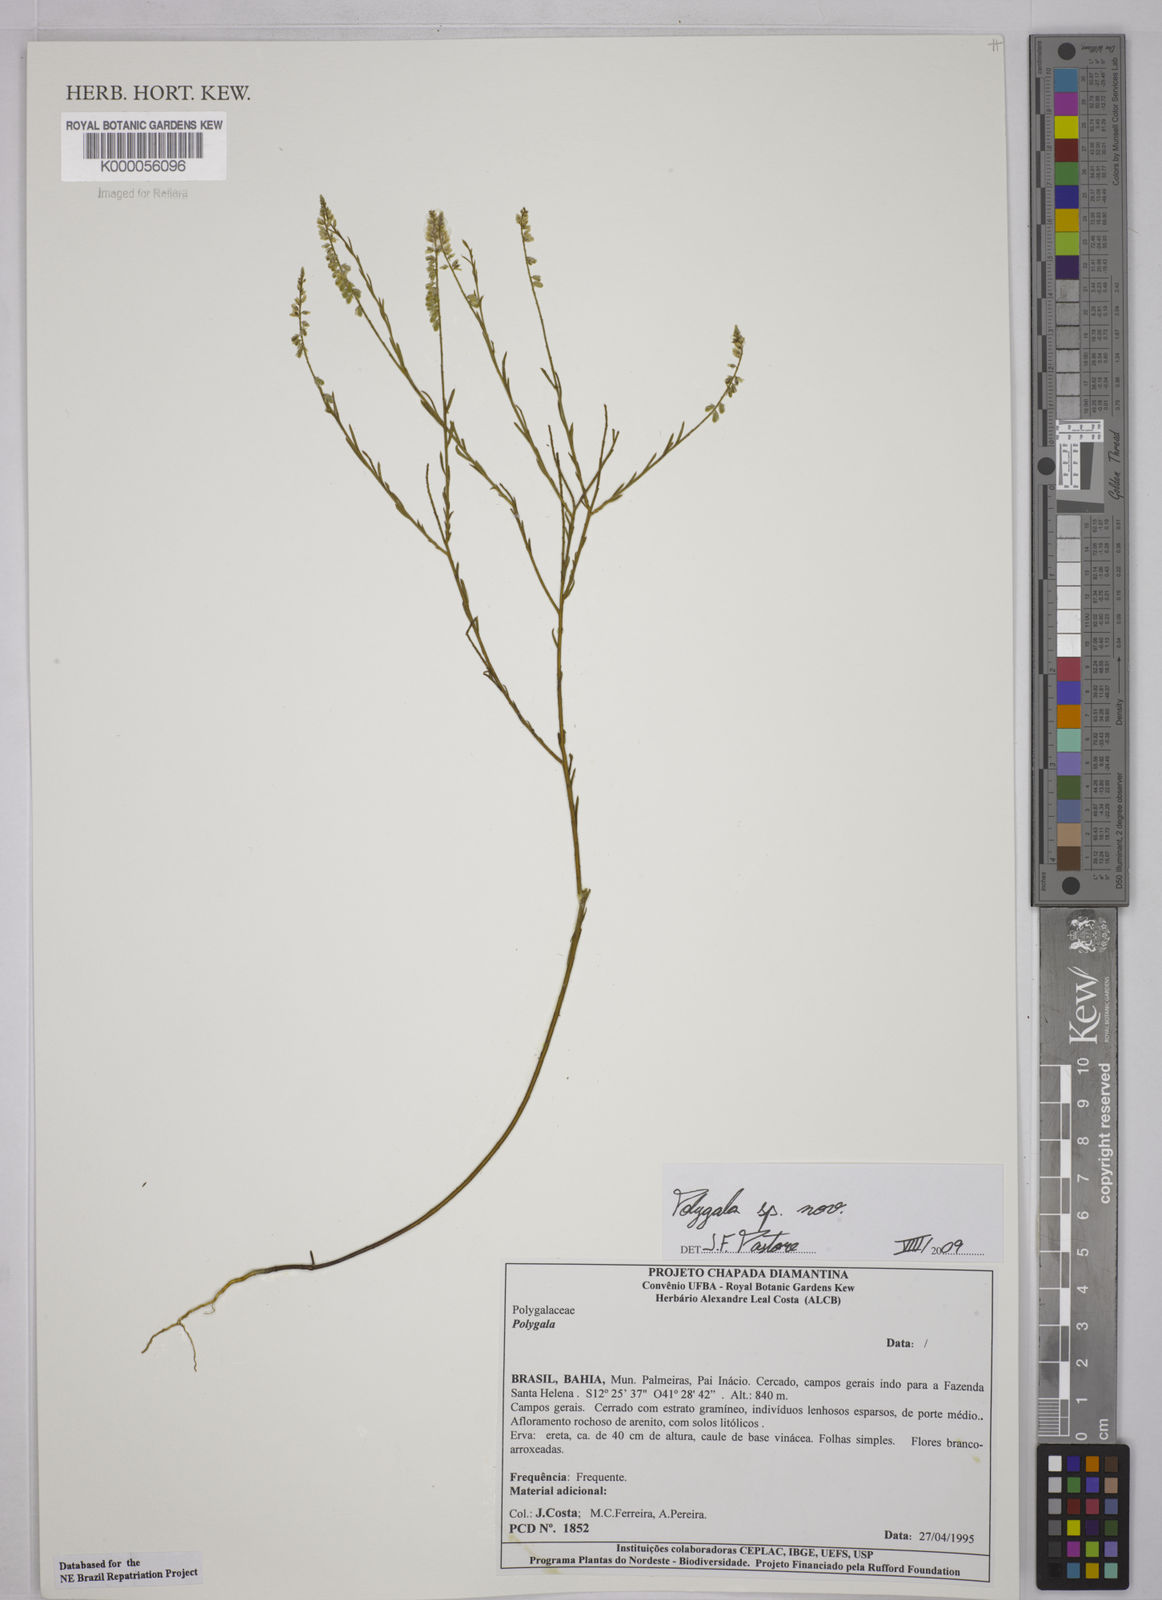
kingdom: Plantae
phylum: Tracheophyta
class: Magnoliopsida
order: Fabales
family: Polygalaceae
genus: Polygala
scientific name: Polygala
